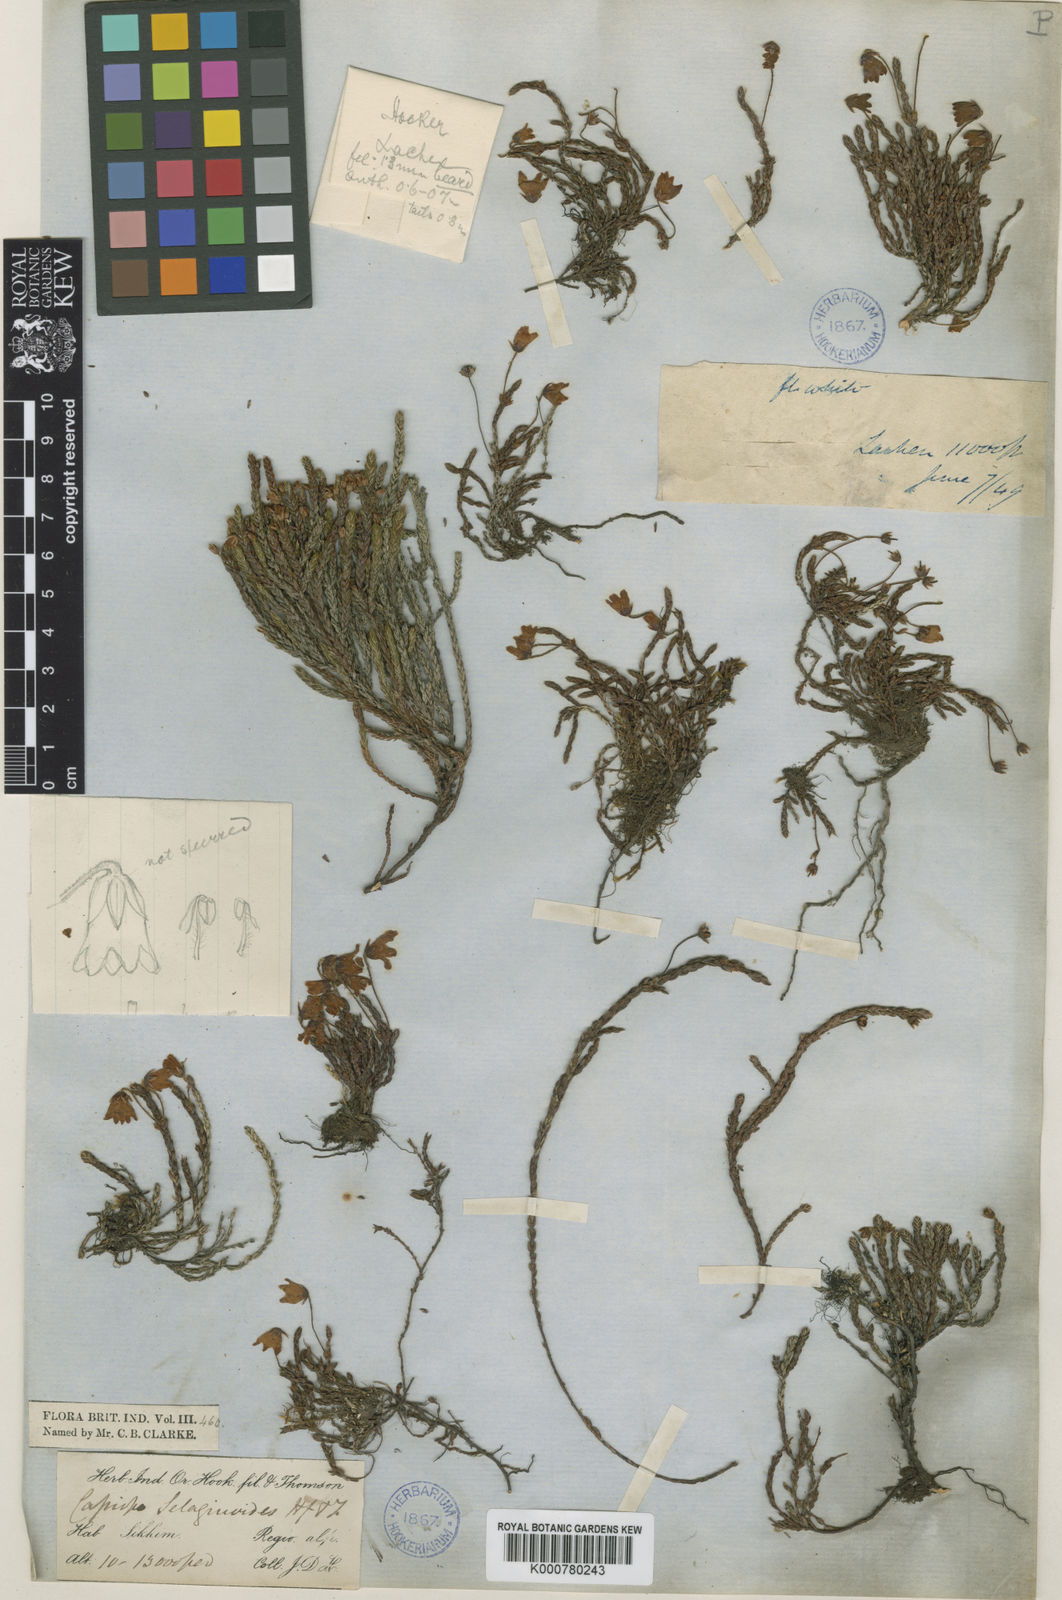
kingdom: Plantae
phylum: Tracheophyta
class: Magnoliopsida
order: Ericales
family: Ericaceae
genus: Cassiope
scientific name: Cassiope selaginoides
